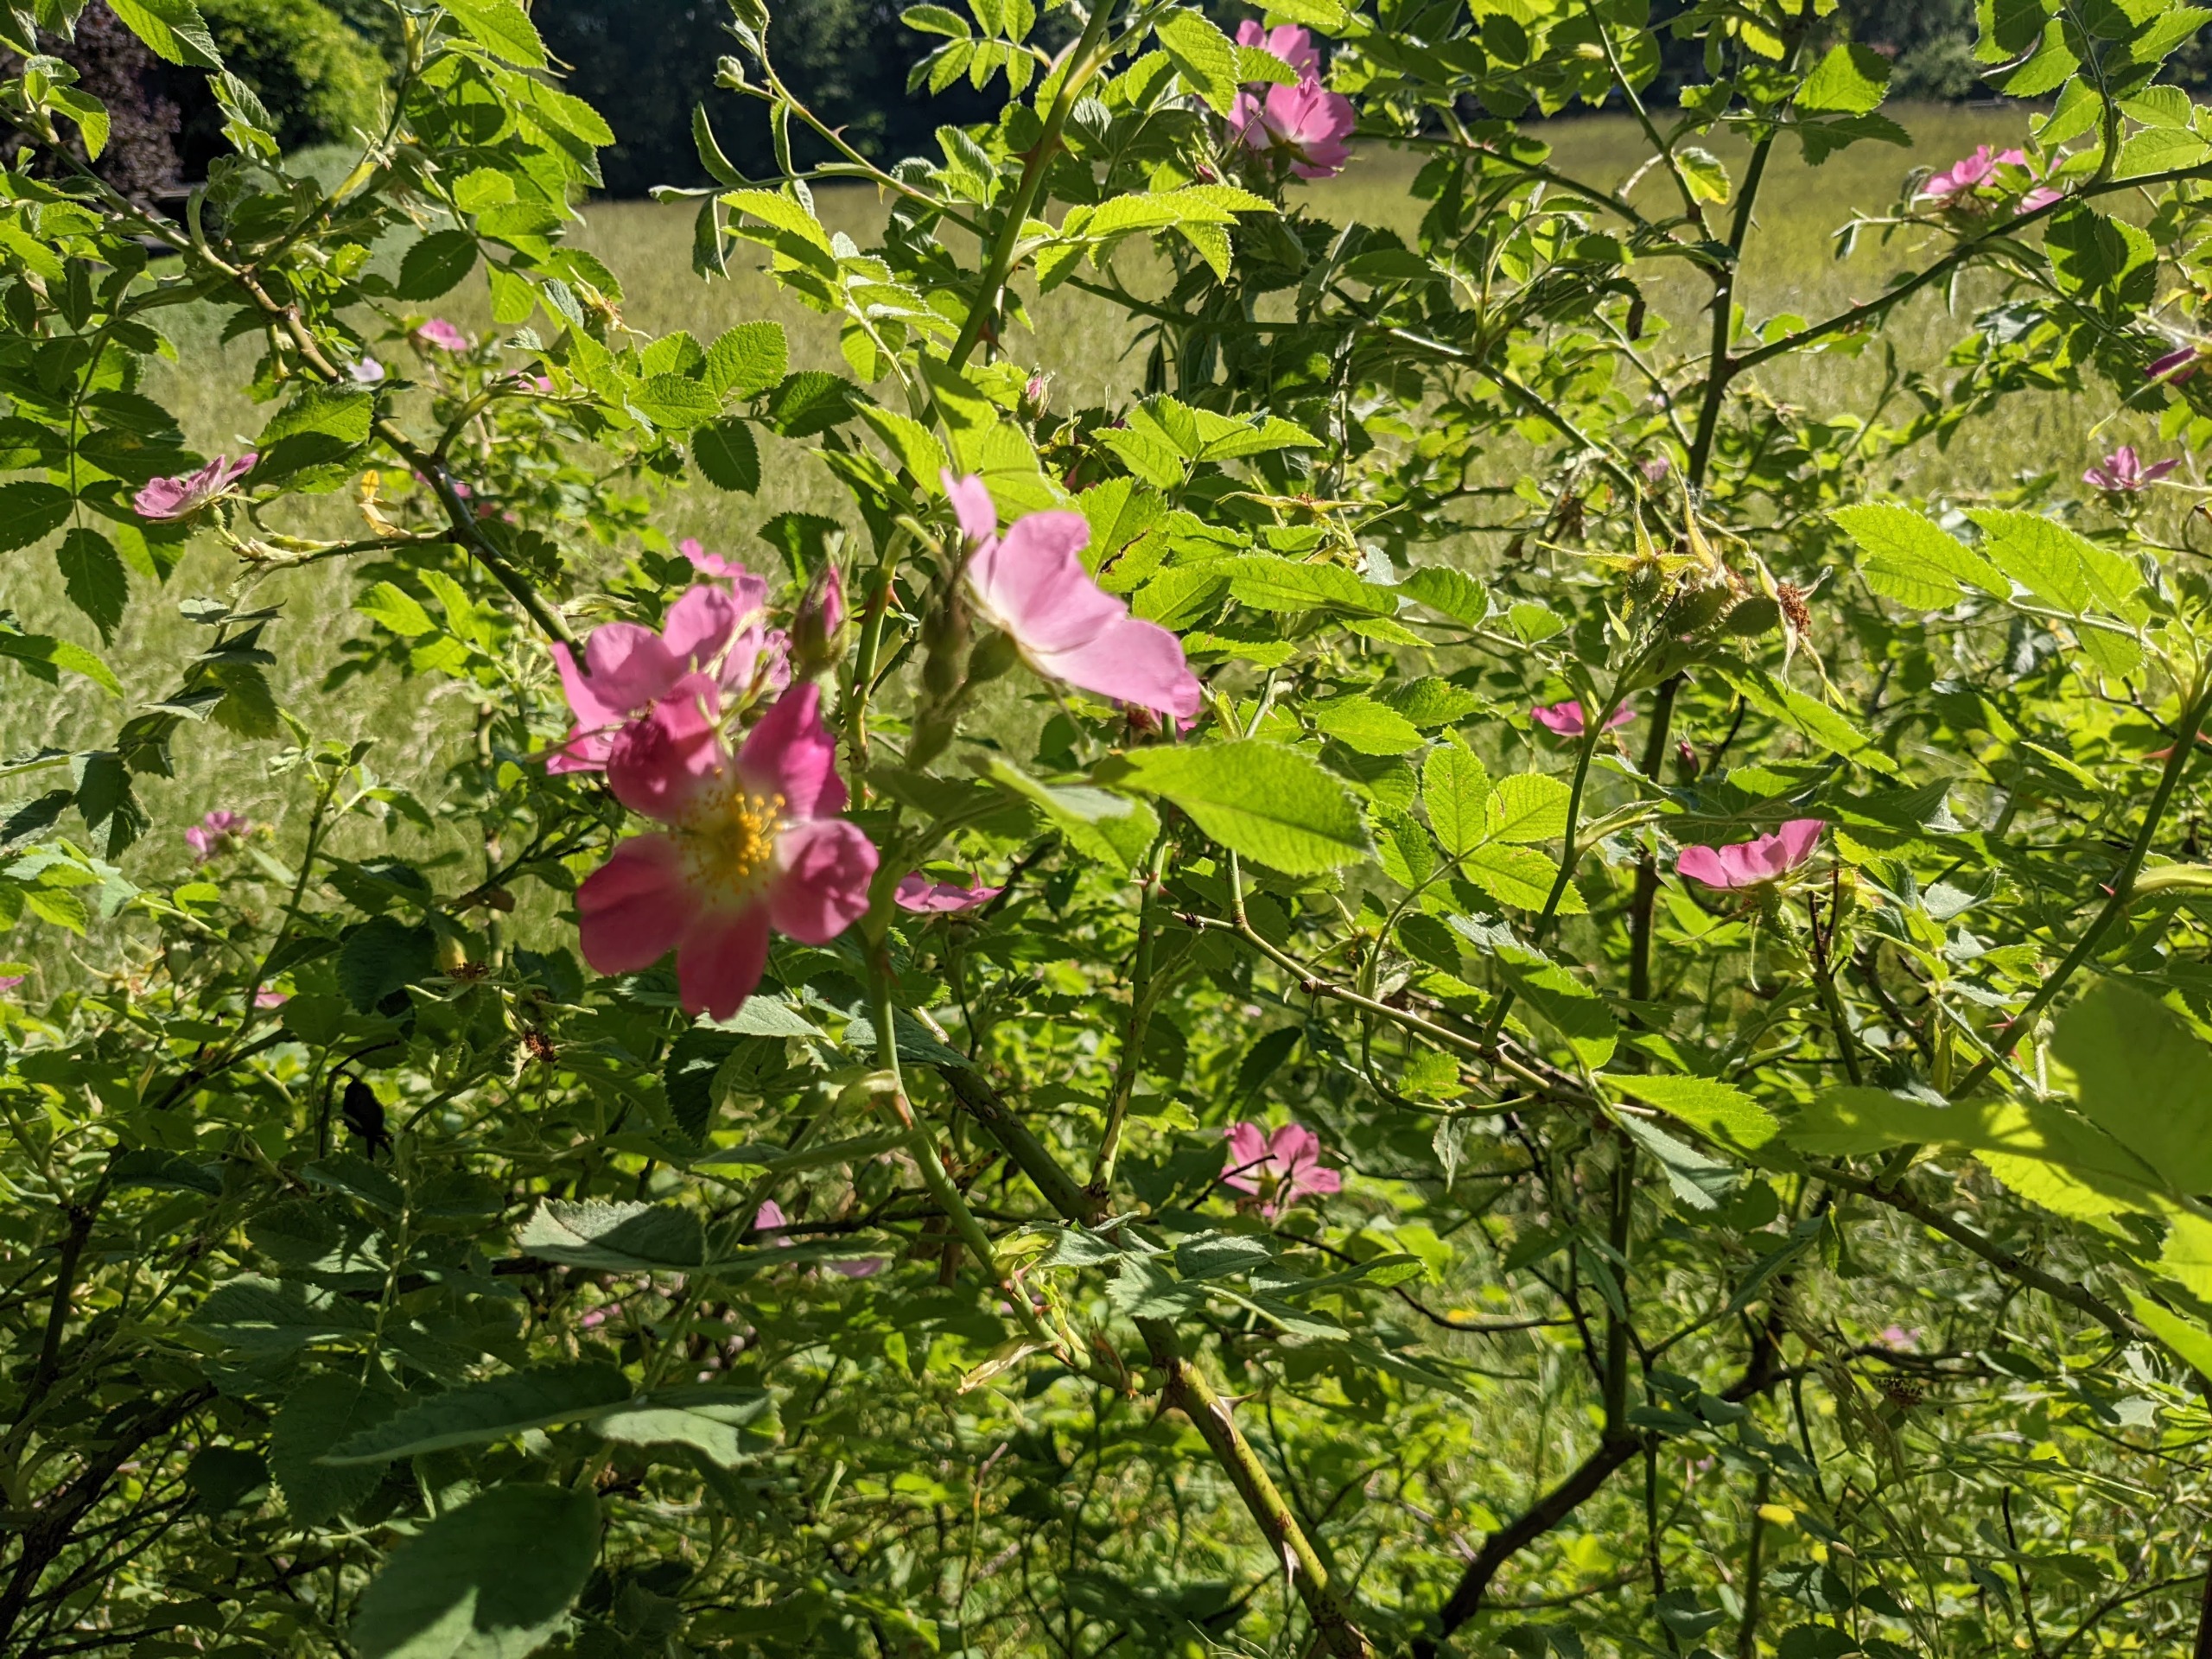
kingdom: Plantae
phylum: Tracheophyta
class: Magnoliopsida
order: Rosales
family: Rosaceae
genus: Rosa
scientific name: Rosa sherardii
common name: Kortstilket filt-rose
